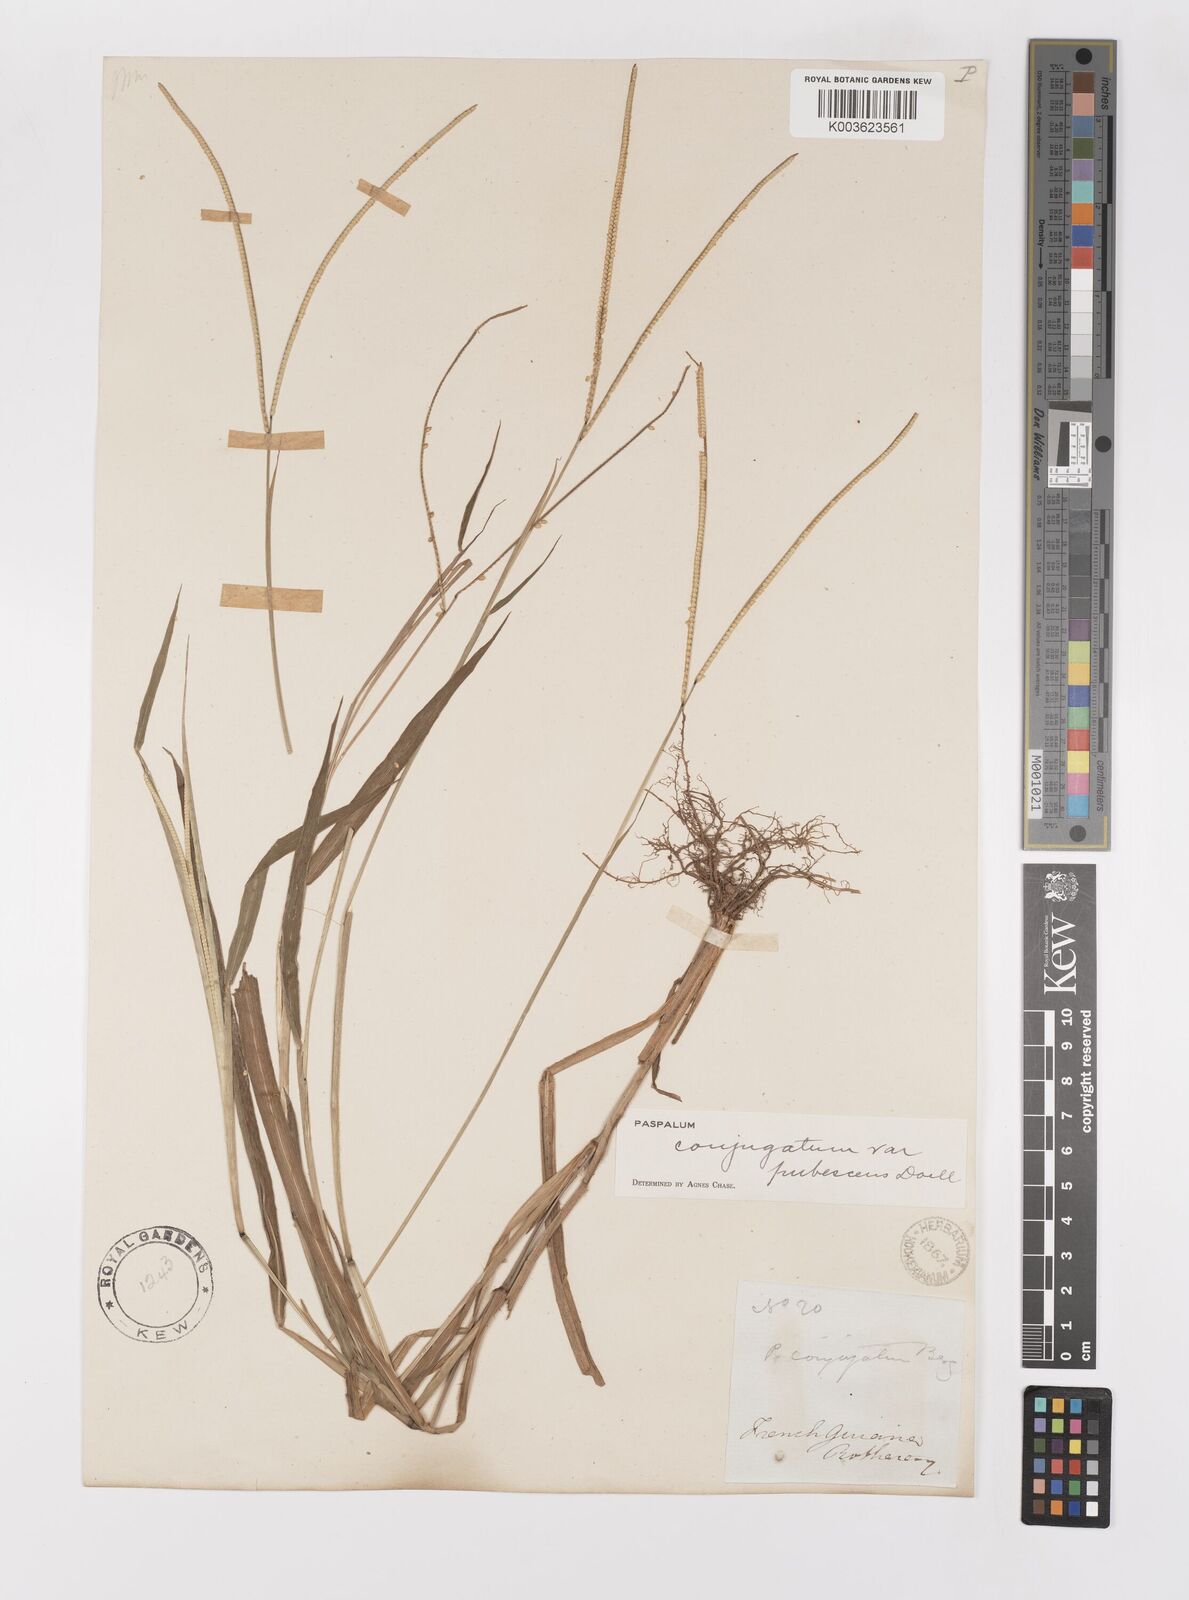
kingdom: Plantae
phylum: Tracheophyta
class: Liliopsida
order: Poales
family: Poaceae
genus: Paspalum
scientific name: Paspalum conjugatum
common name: Hilograss
